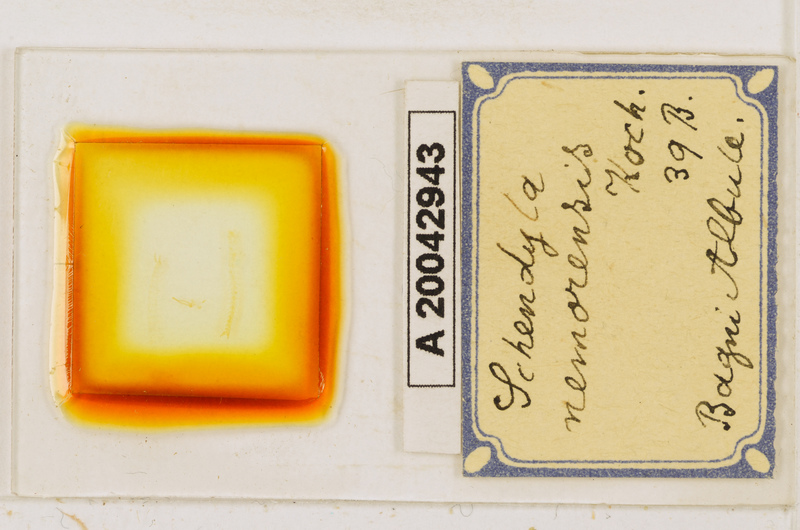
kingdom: Animalia
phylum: Arthropoda
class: Chilopoda
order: Geophilomorpha
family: Schendylidae
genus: Schendyla
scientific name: Schendyla nemorensis
